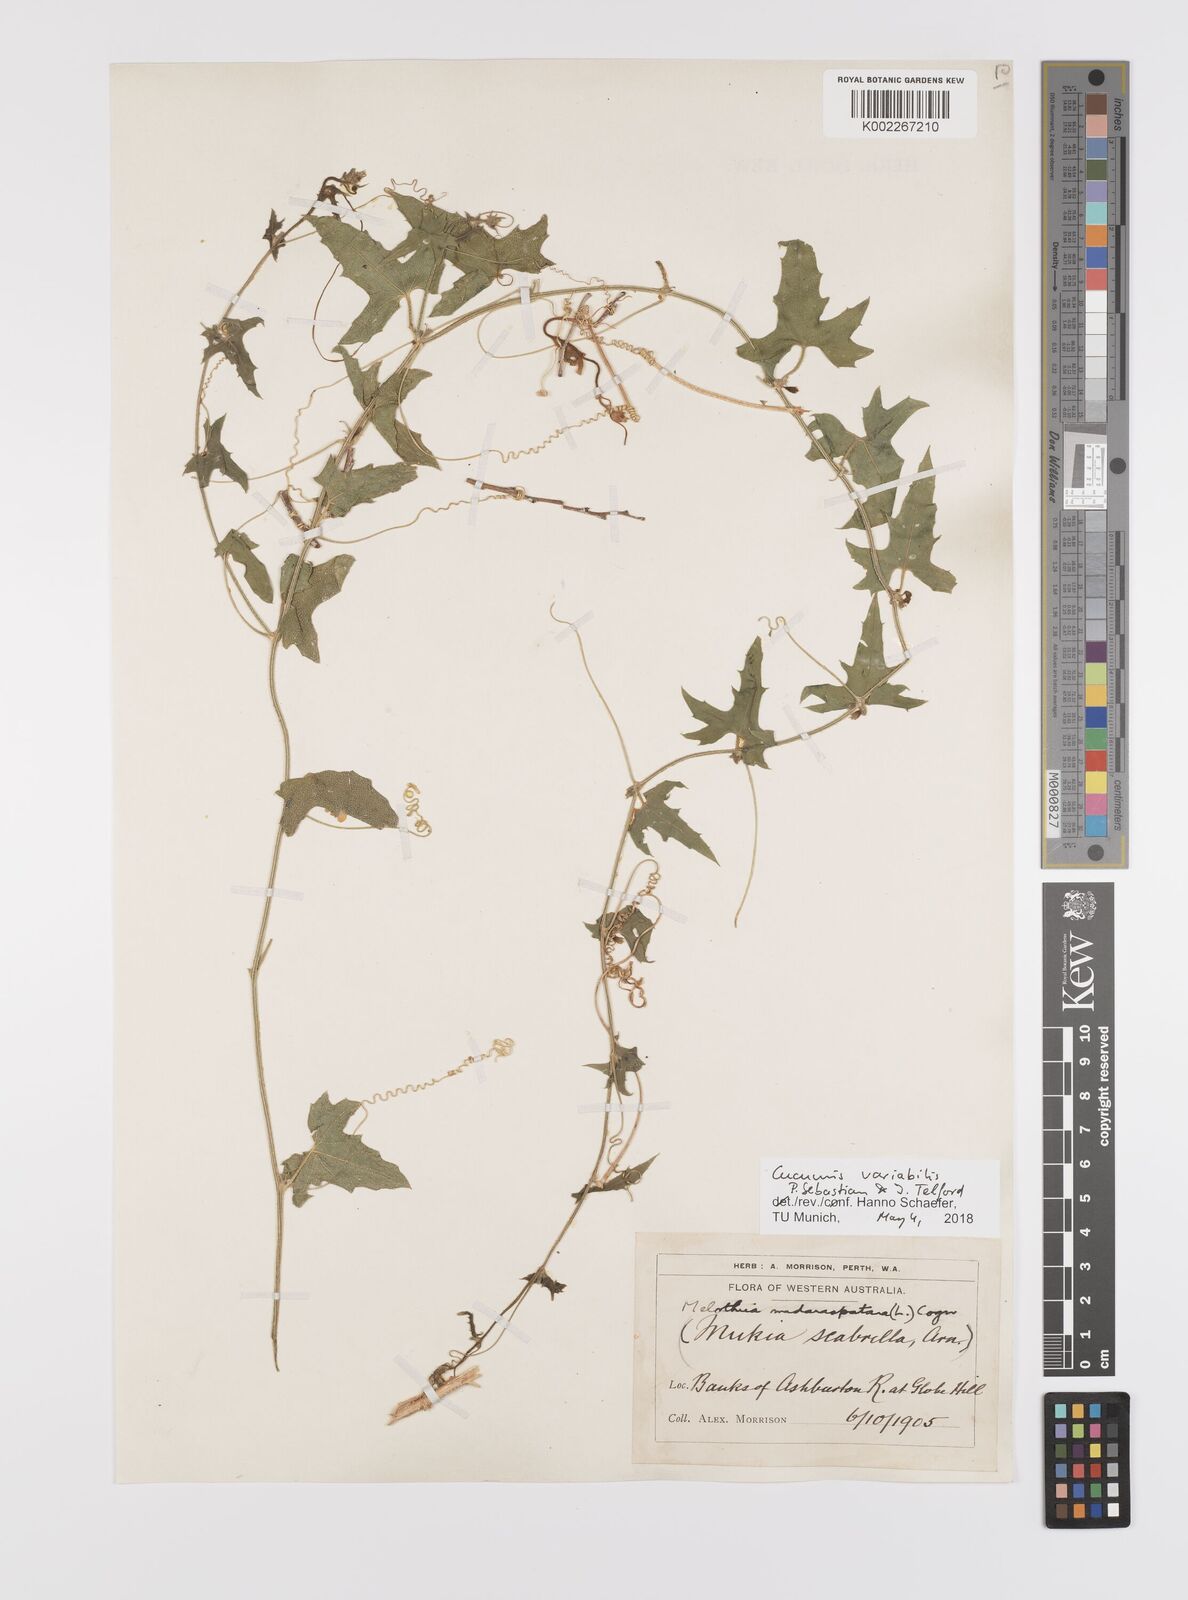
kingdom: Plantae
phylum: Tracheophyta
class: Magnoliopsida
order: Cucurbitales
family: Cucurbitaceae
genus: Cucumis
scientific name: Cucumis variabilis
